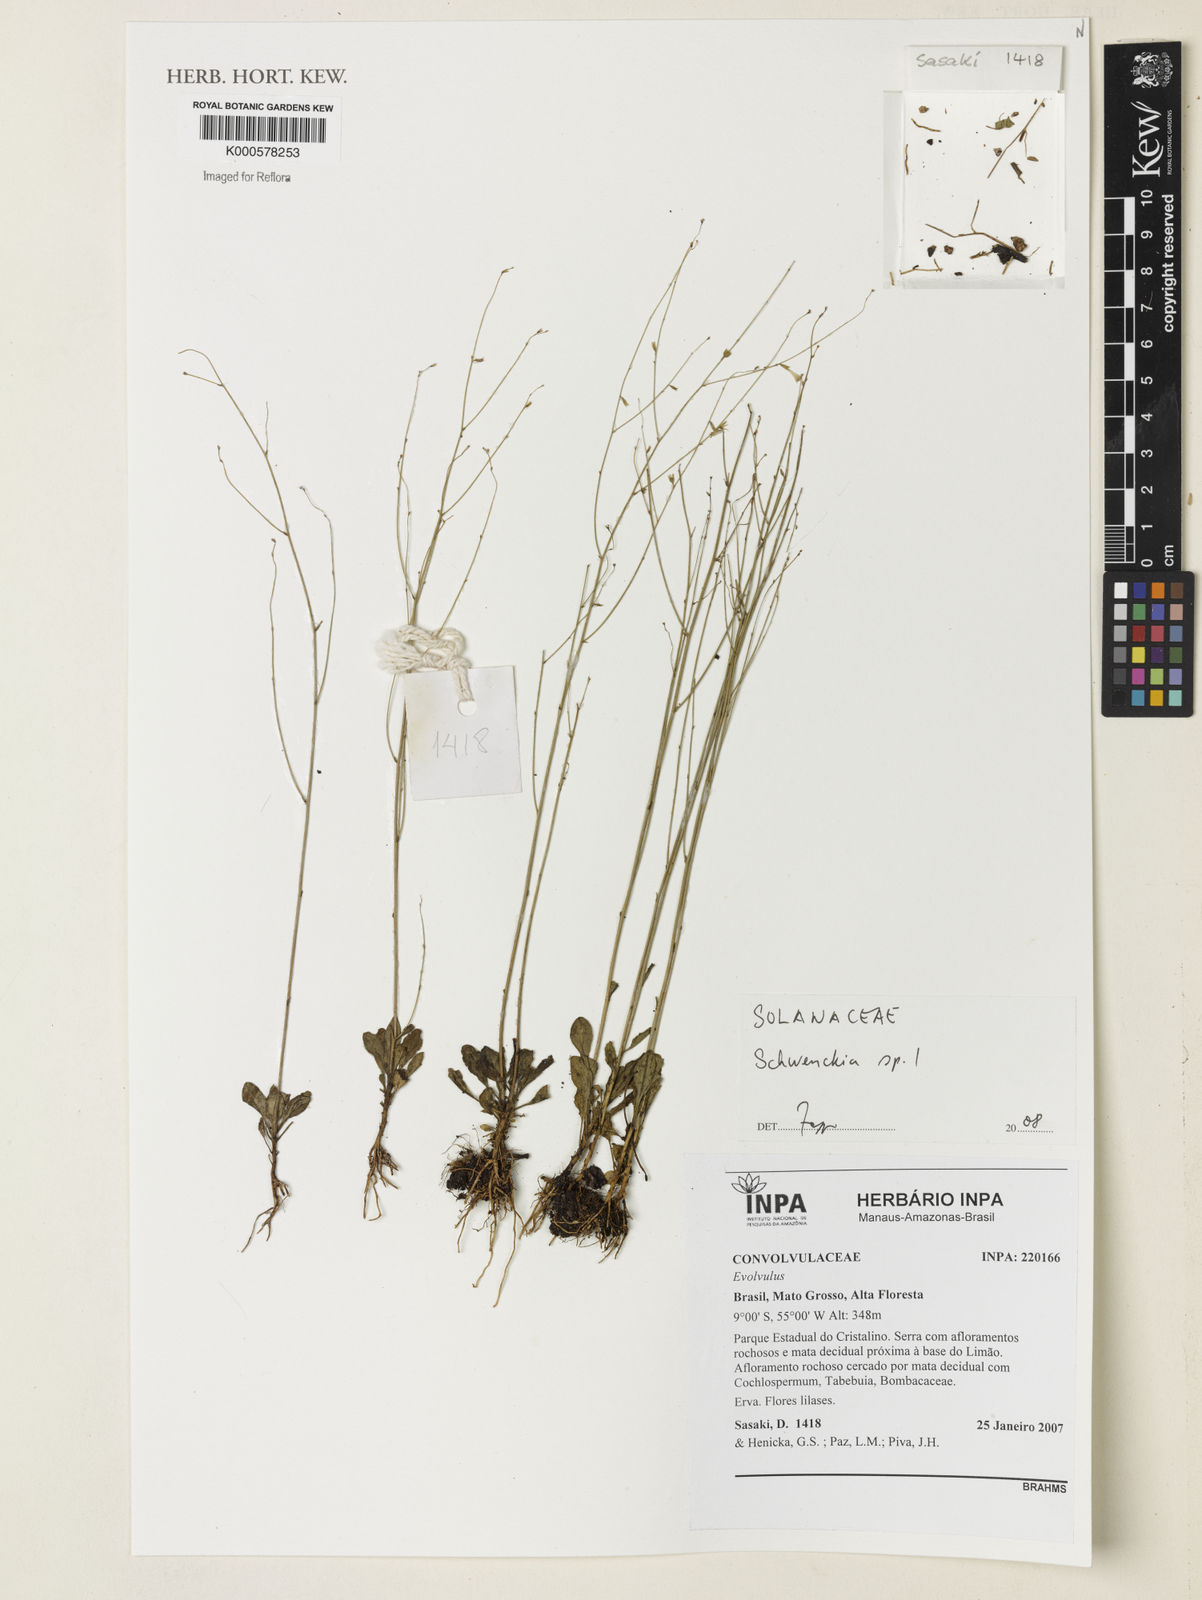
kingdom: Plantae
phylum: Tracheophyta
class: Magnoliopsida
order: Solanales
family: Solanaceae
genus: Schwenckia
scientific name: Schwenckia
